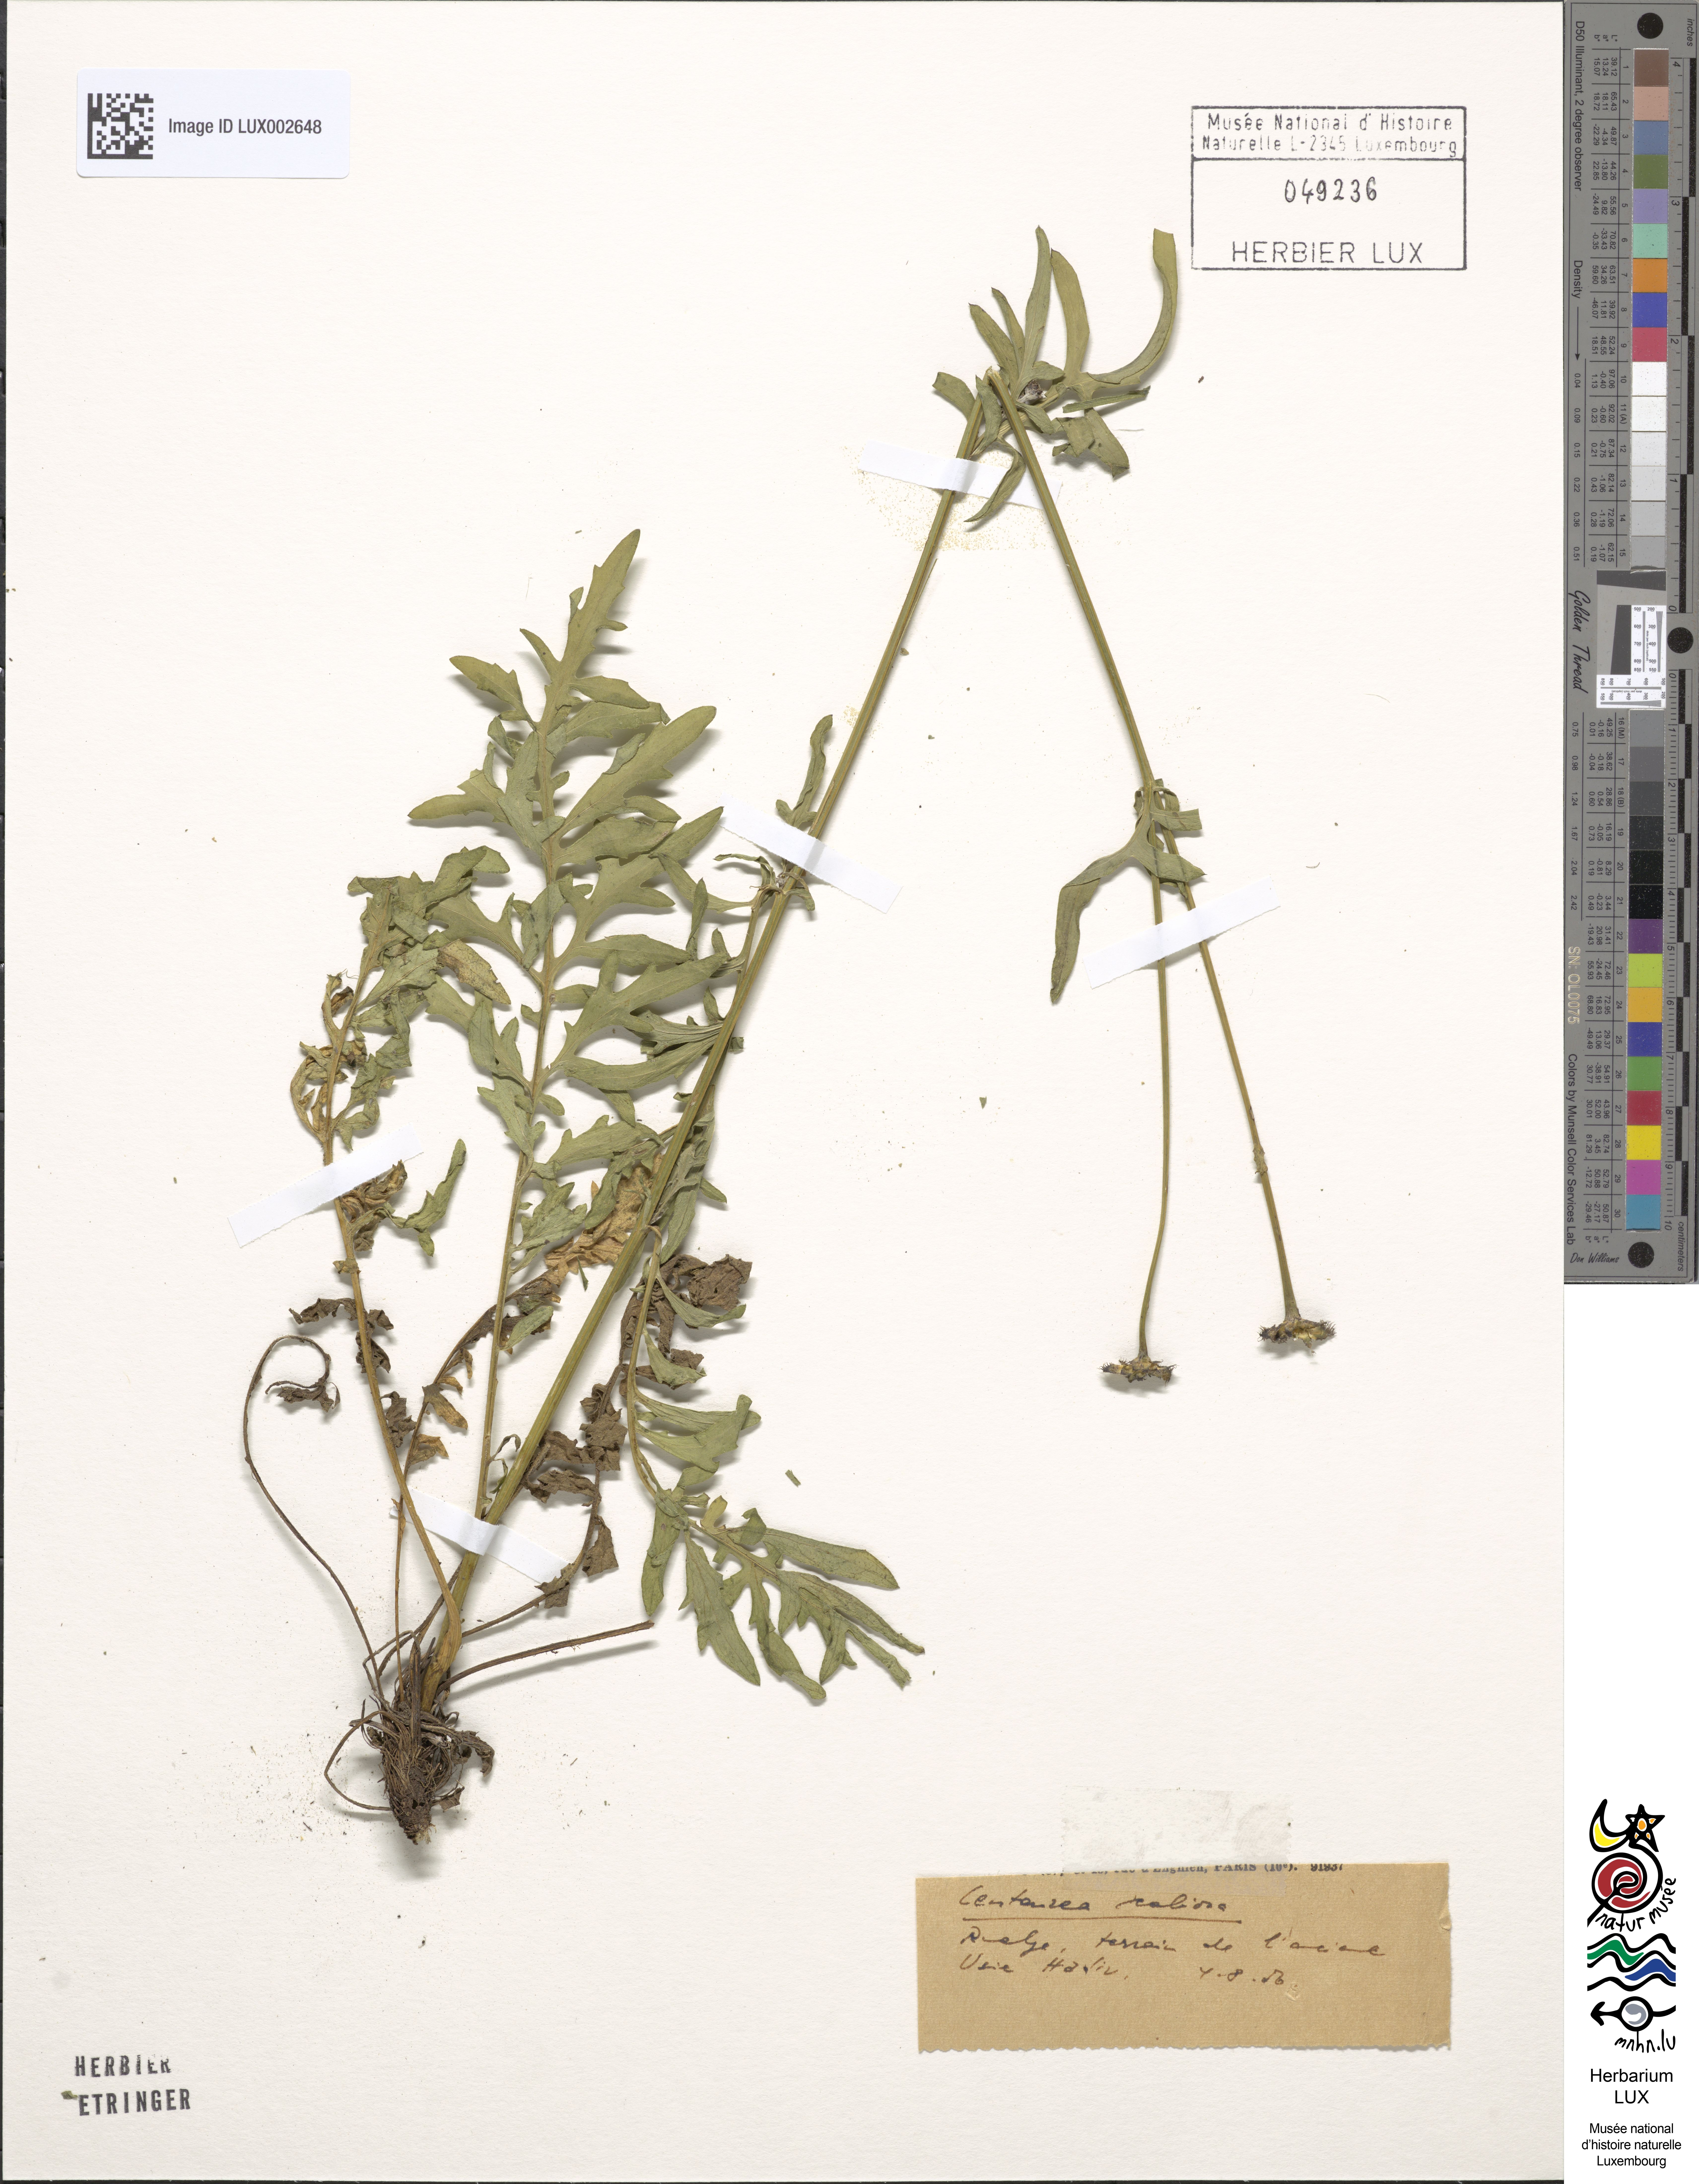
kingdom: Plantae
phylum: Tracheophyta
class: Magnoliopsida
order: Asterales
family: Asteraceae
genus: Centaurea
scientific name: Centaurea scabiosa
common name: Greater knapweed
